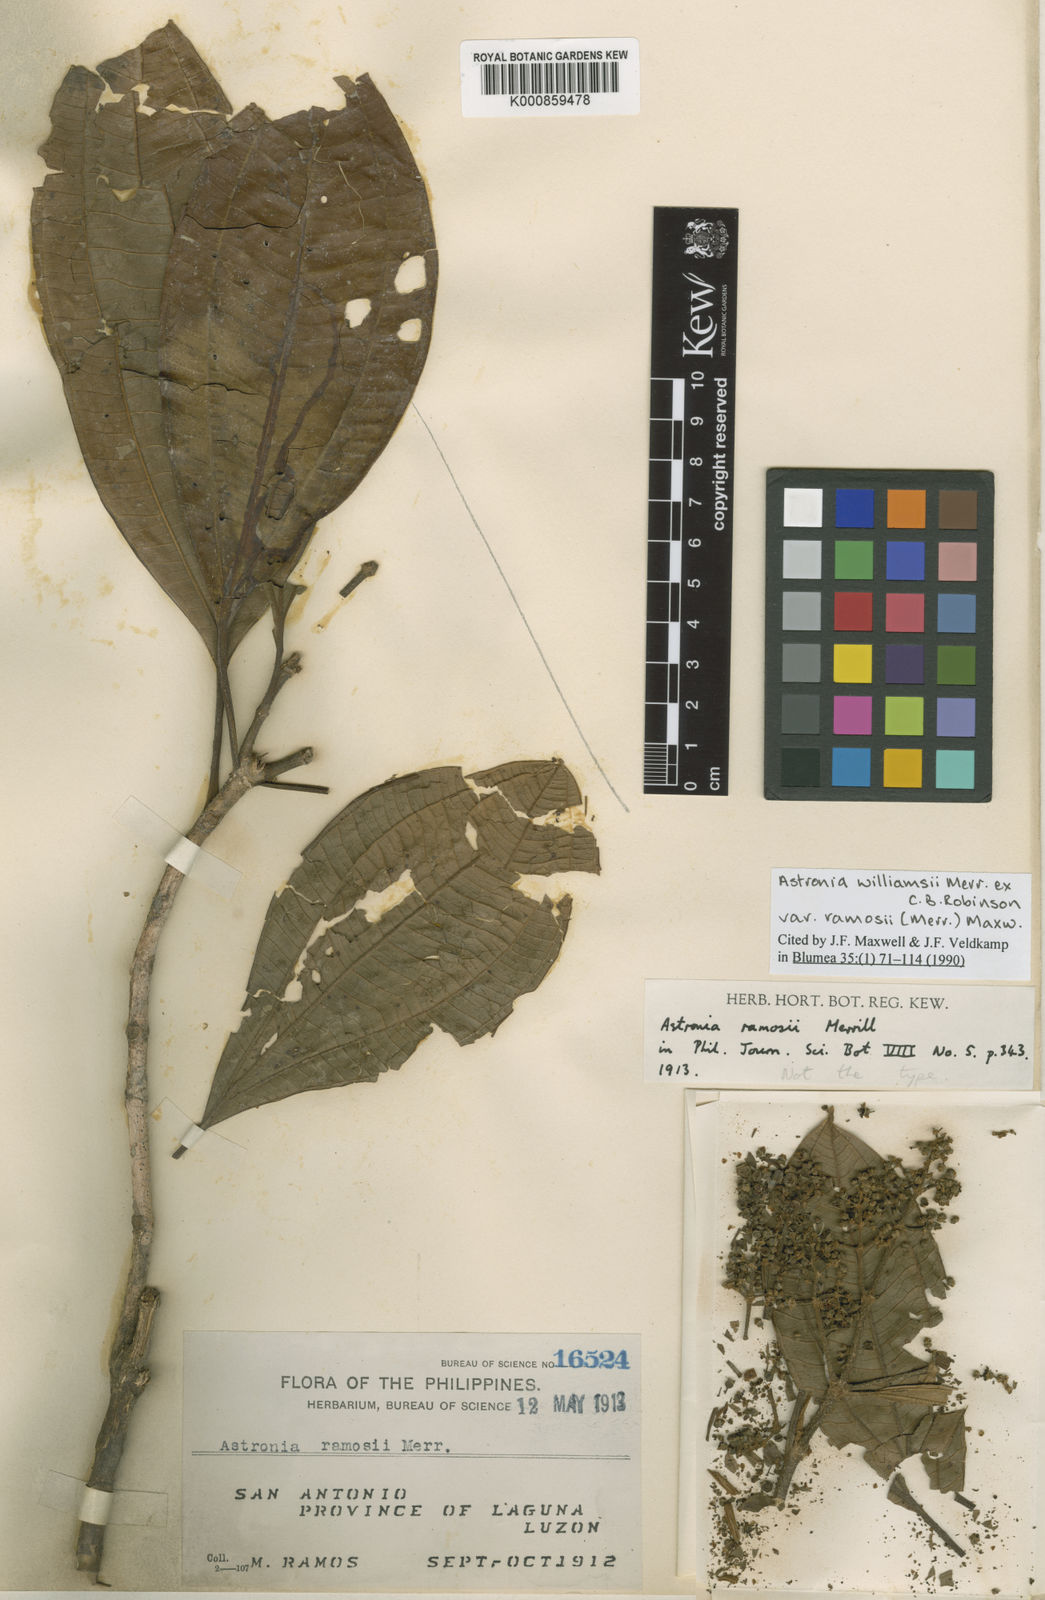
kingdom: Plantae
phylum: Tracheophyta
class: Magnoliopsida
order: Myrtales
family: Melastomataceae
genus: Astronia
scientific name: Astronia williamsii
